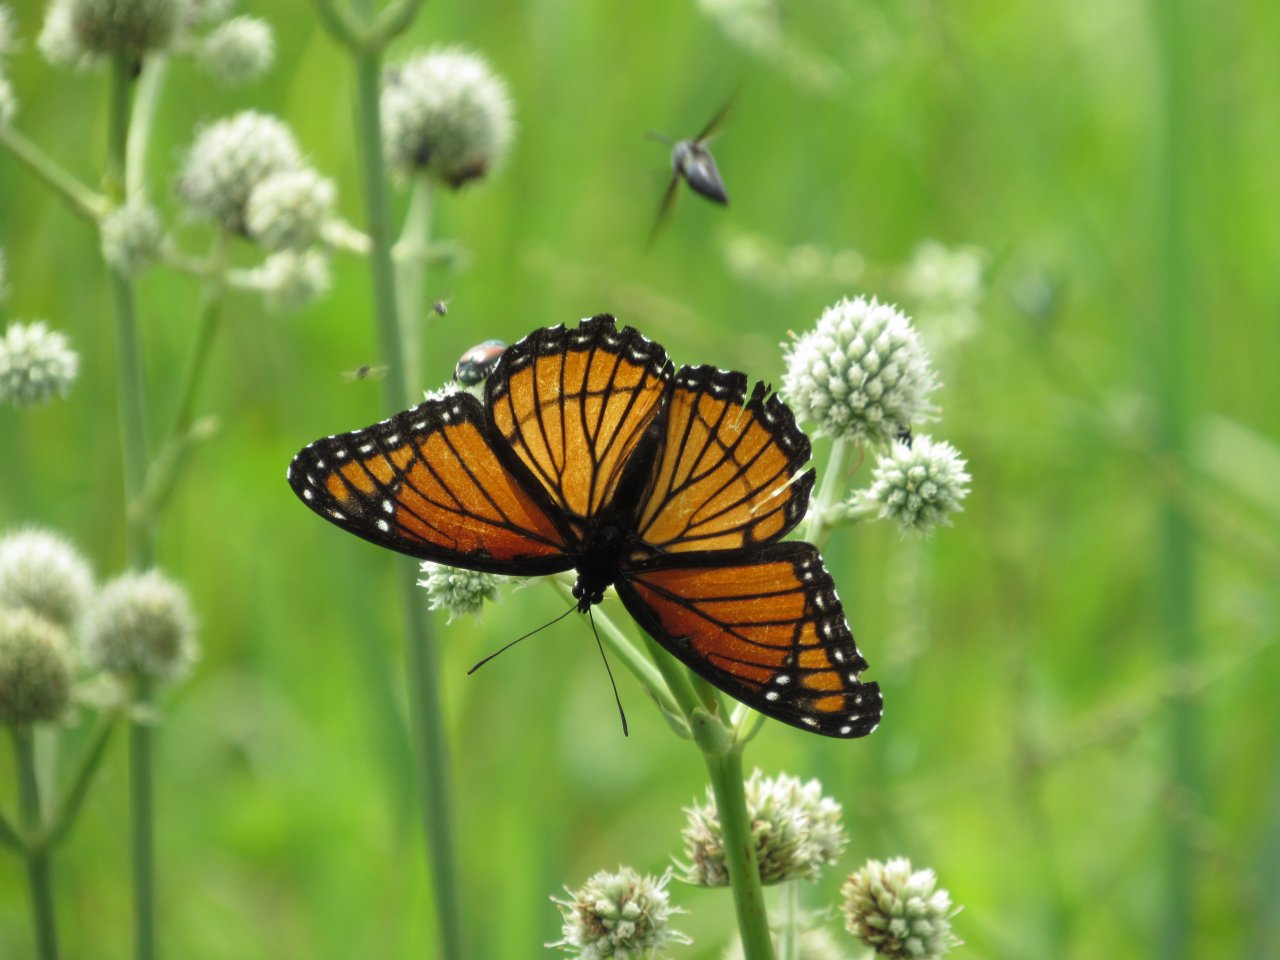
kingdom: Animalia
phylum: Arthropoda
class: Insecta
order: Lepidoptera
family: Nymphalidae
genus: Limenitis
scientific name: Limenitis archippus
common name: Viceroy
